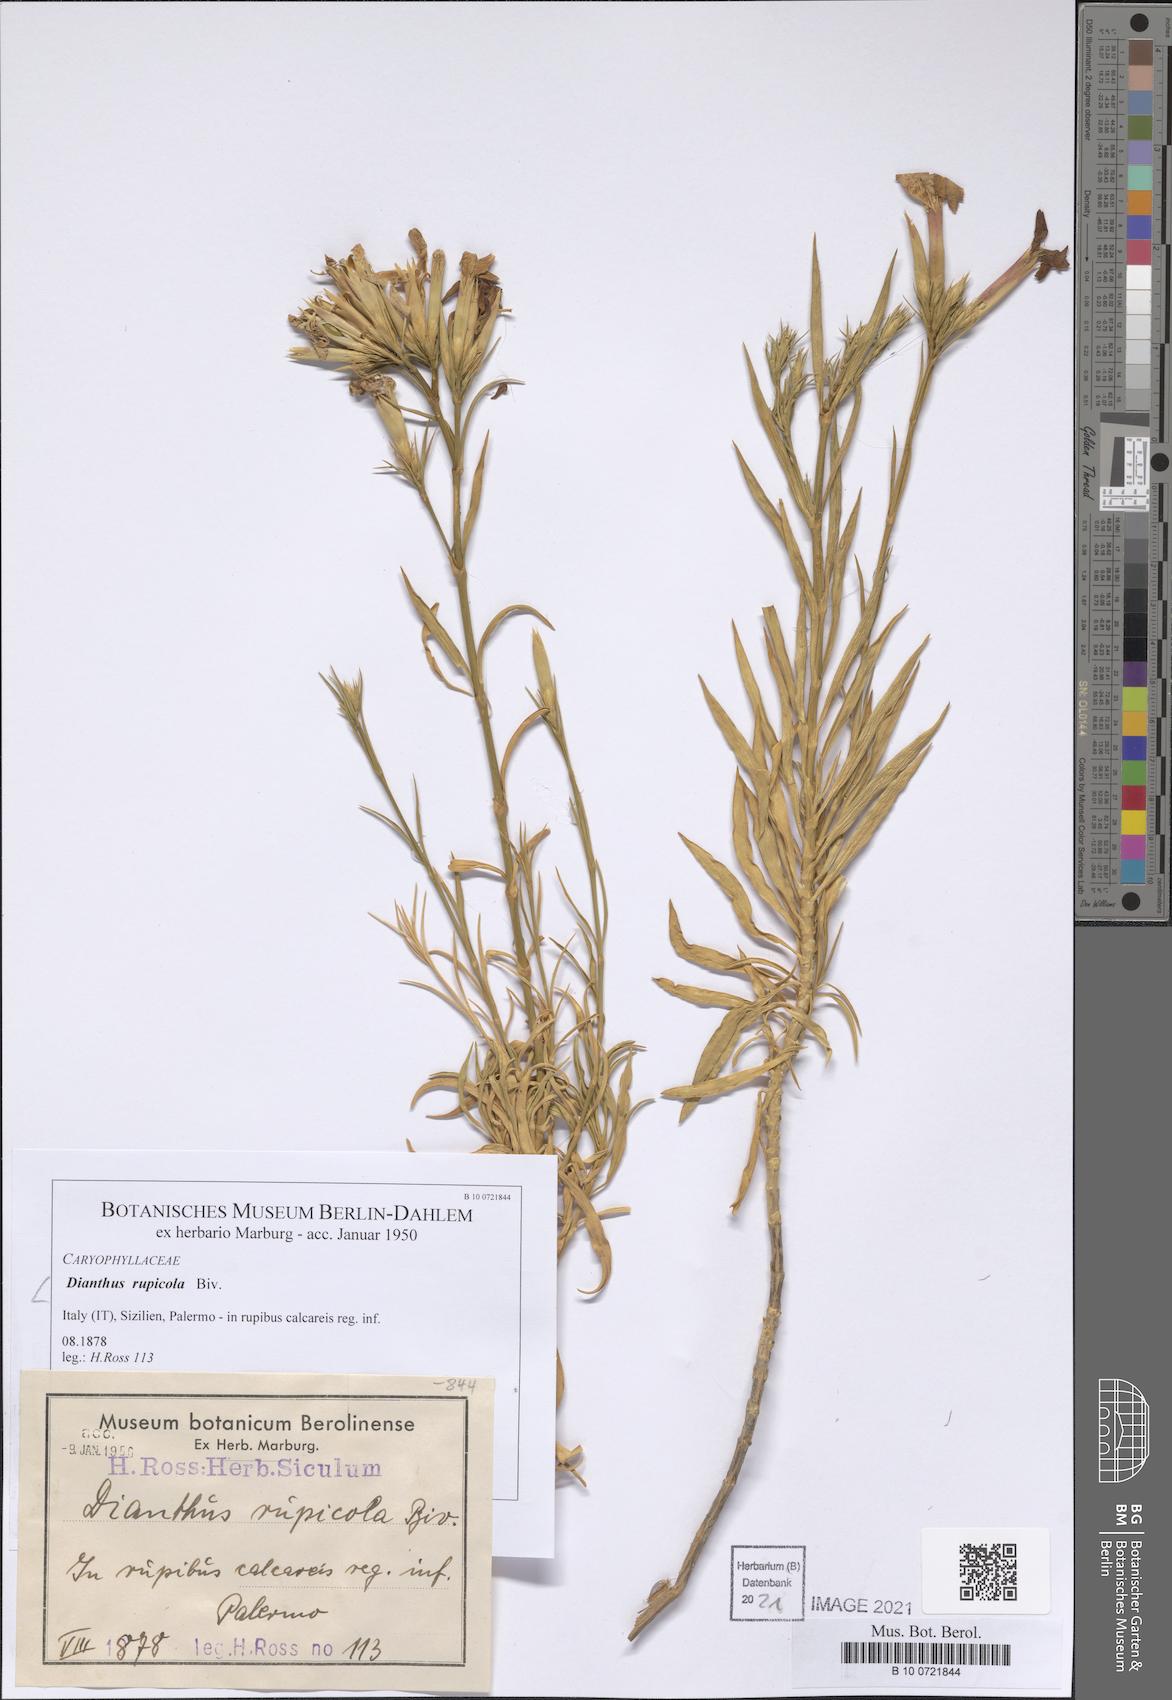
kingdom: Plantae
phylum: Tracheophyta
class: Magnoliopsida
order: Caryophyllales
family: Caryophyllaceae
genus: Dianthus
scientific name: Dianthus rupicola
